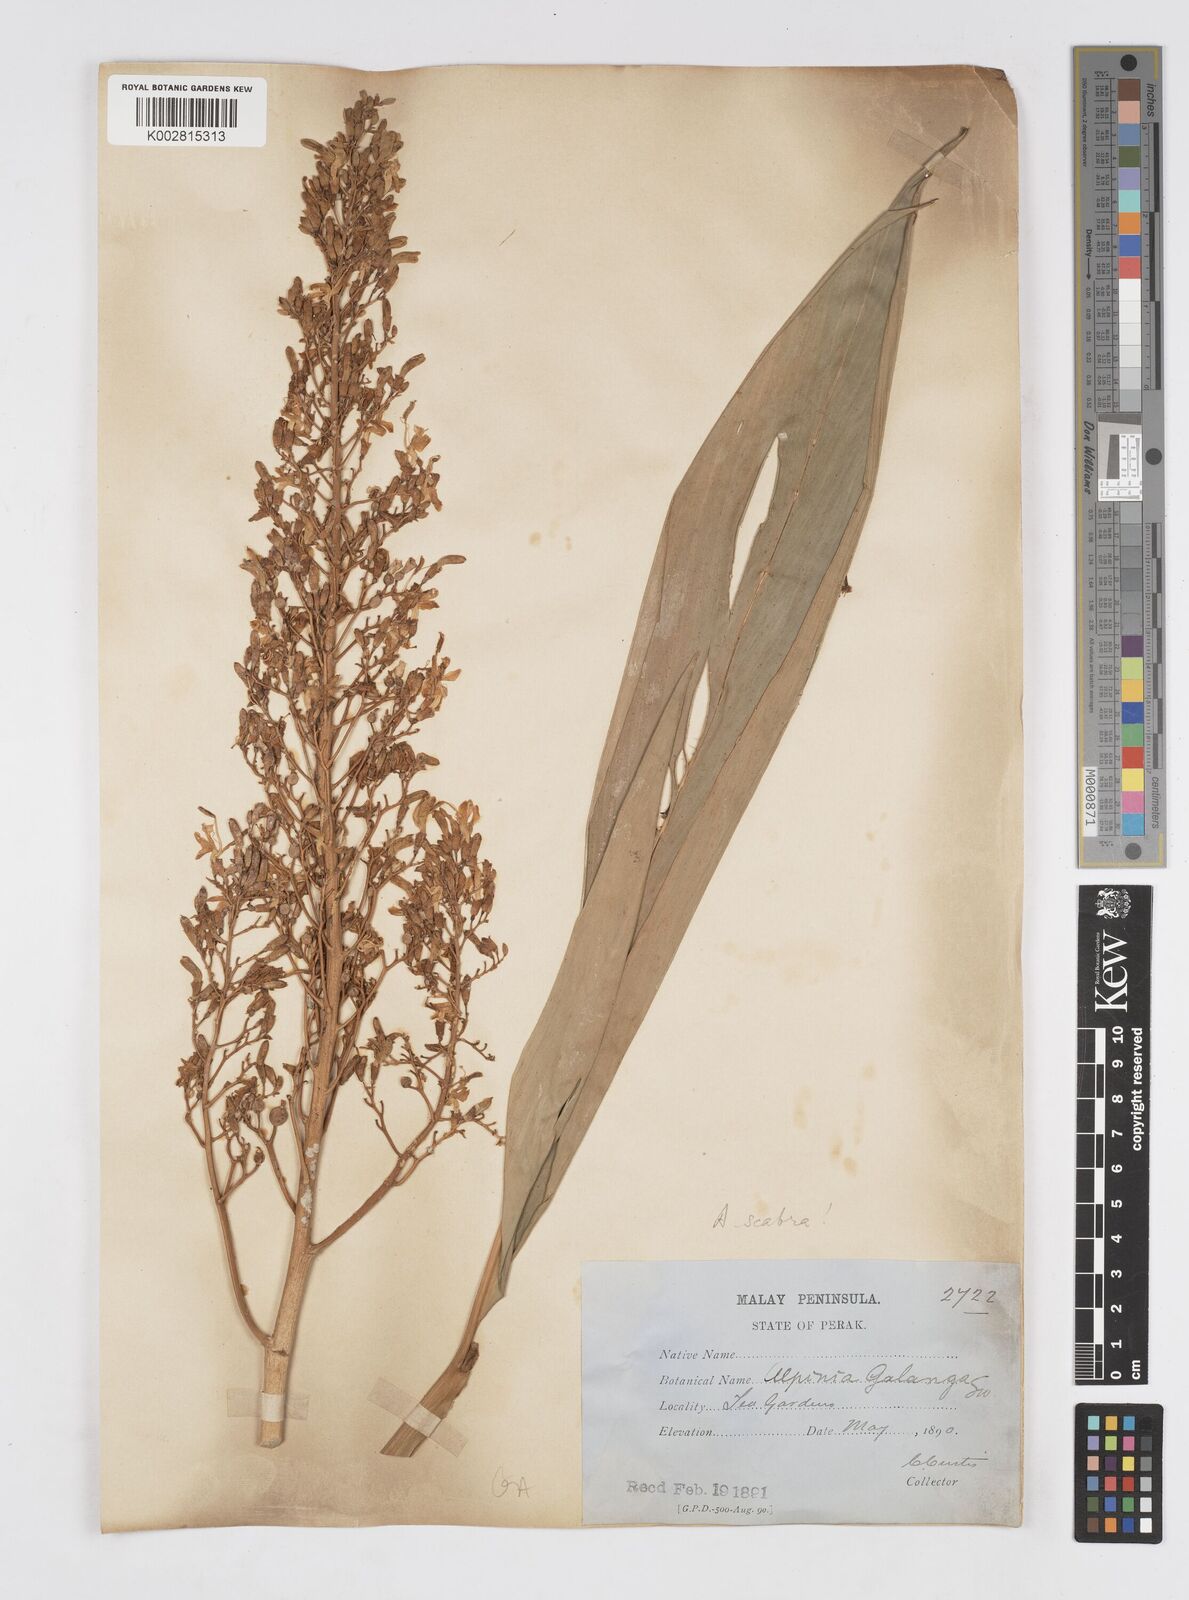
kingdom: Plantae
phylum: Tracheophyta
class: Liliopsida
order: Zingiberales
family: Zingiberaceae
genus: Alpinia
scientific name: Alpinia scabra
